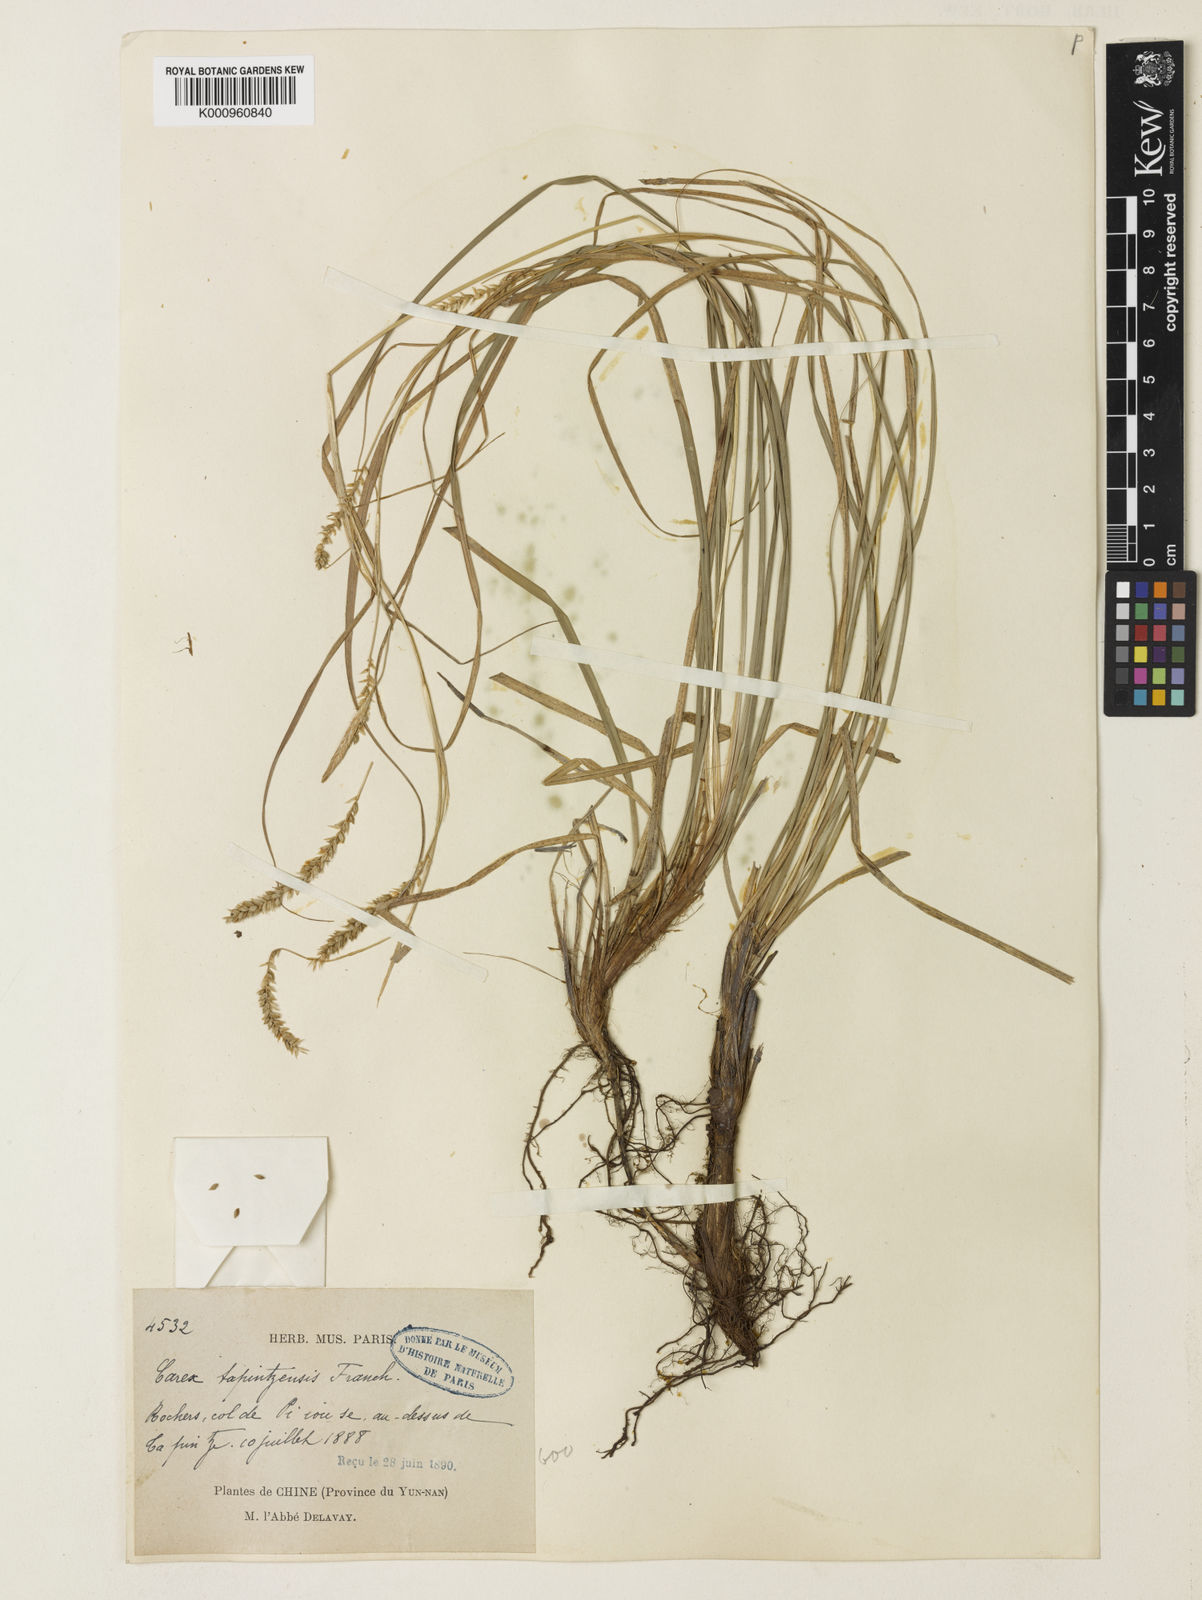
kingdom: Plantae
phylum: Tracheophyta
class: Liliopsida
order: Poales
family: Cyperaceae
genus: Carex
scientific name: Carex tapintzensis
